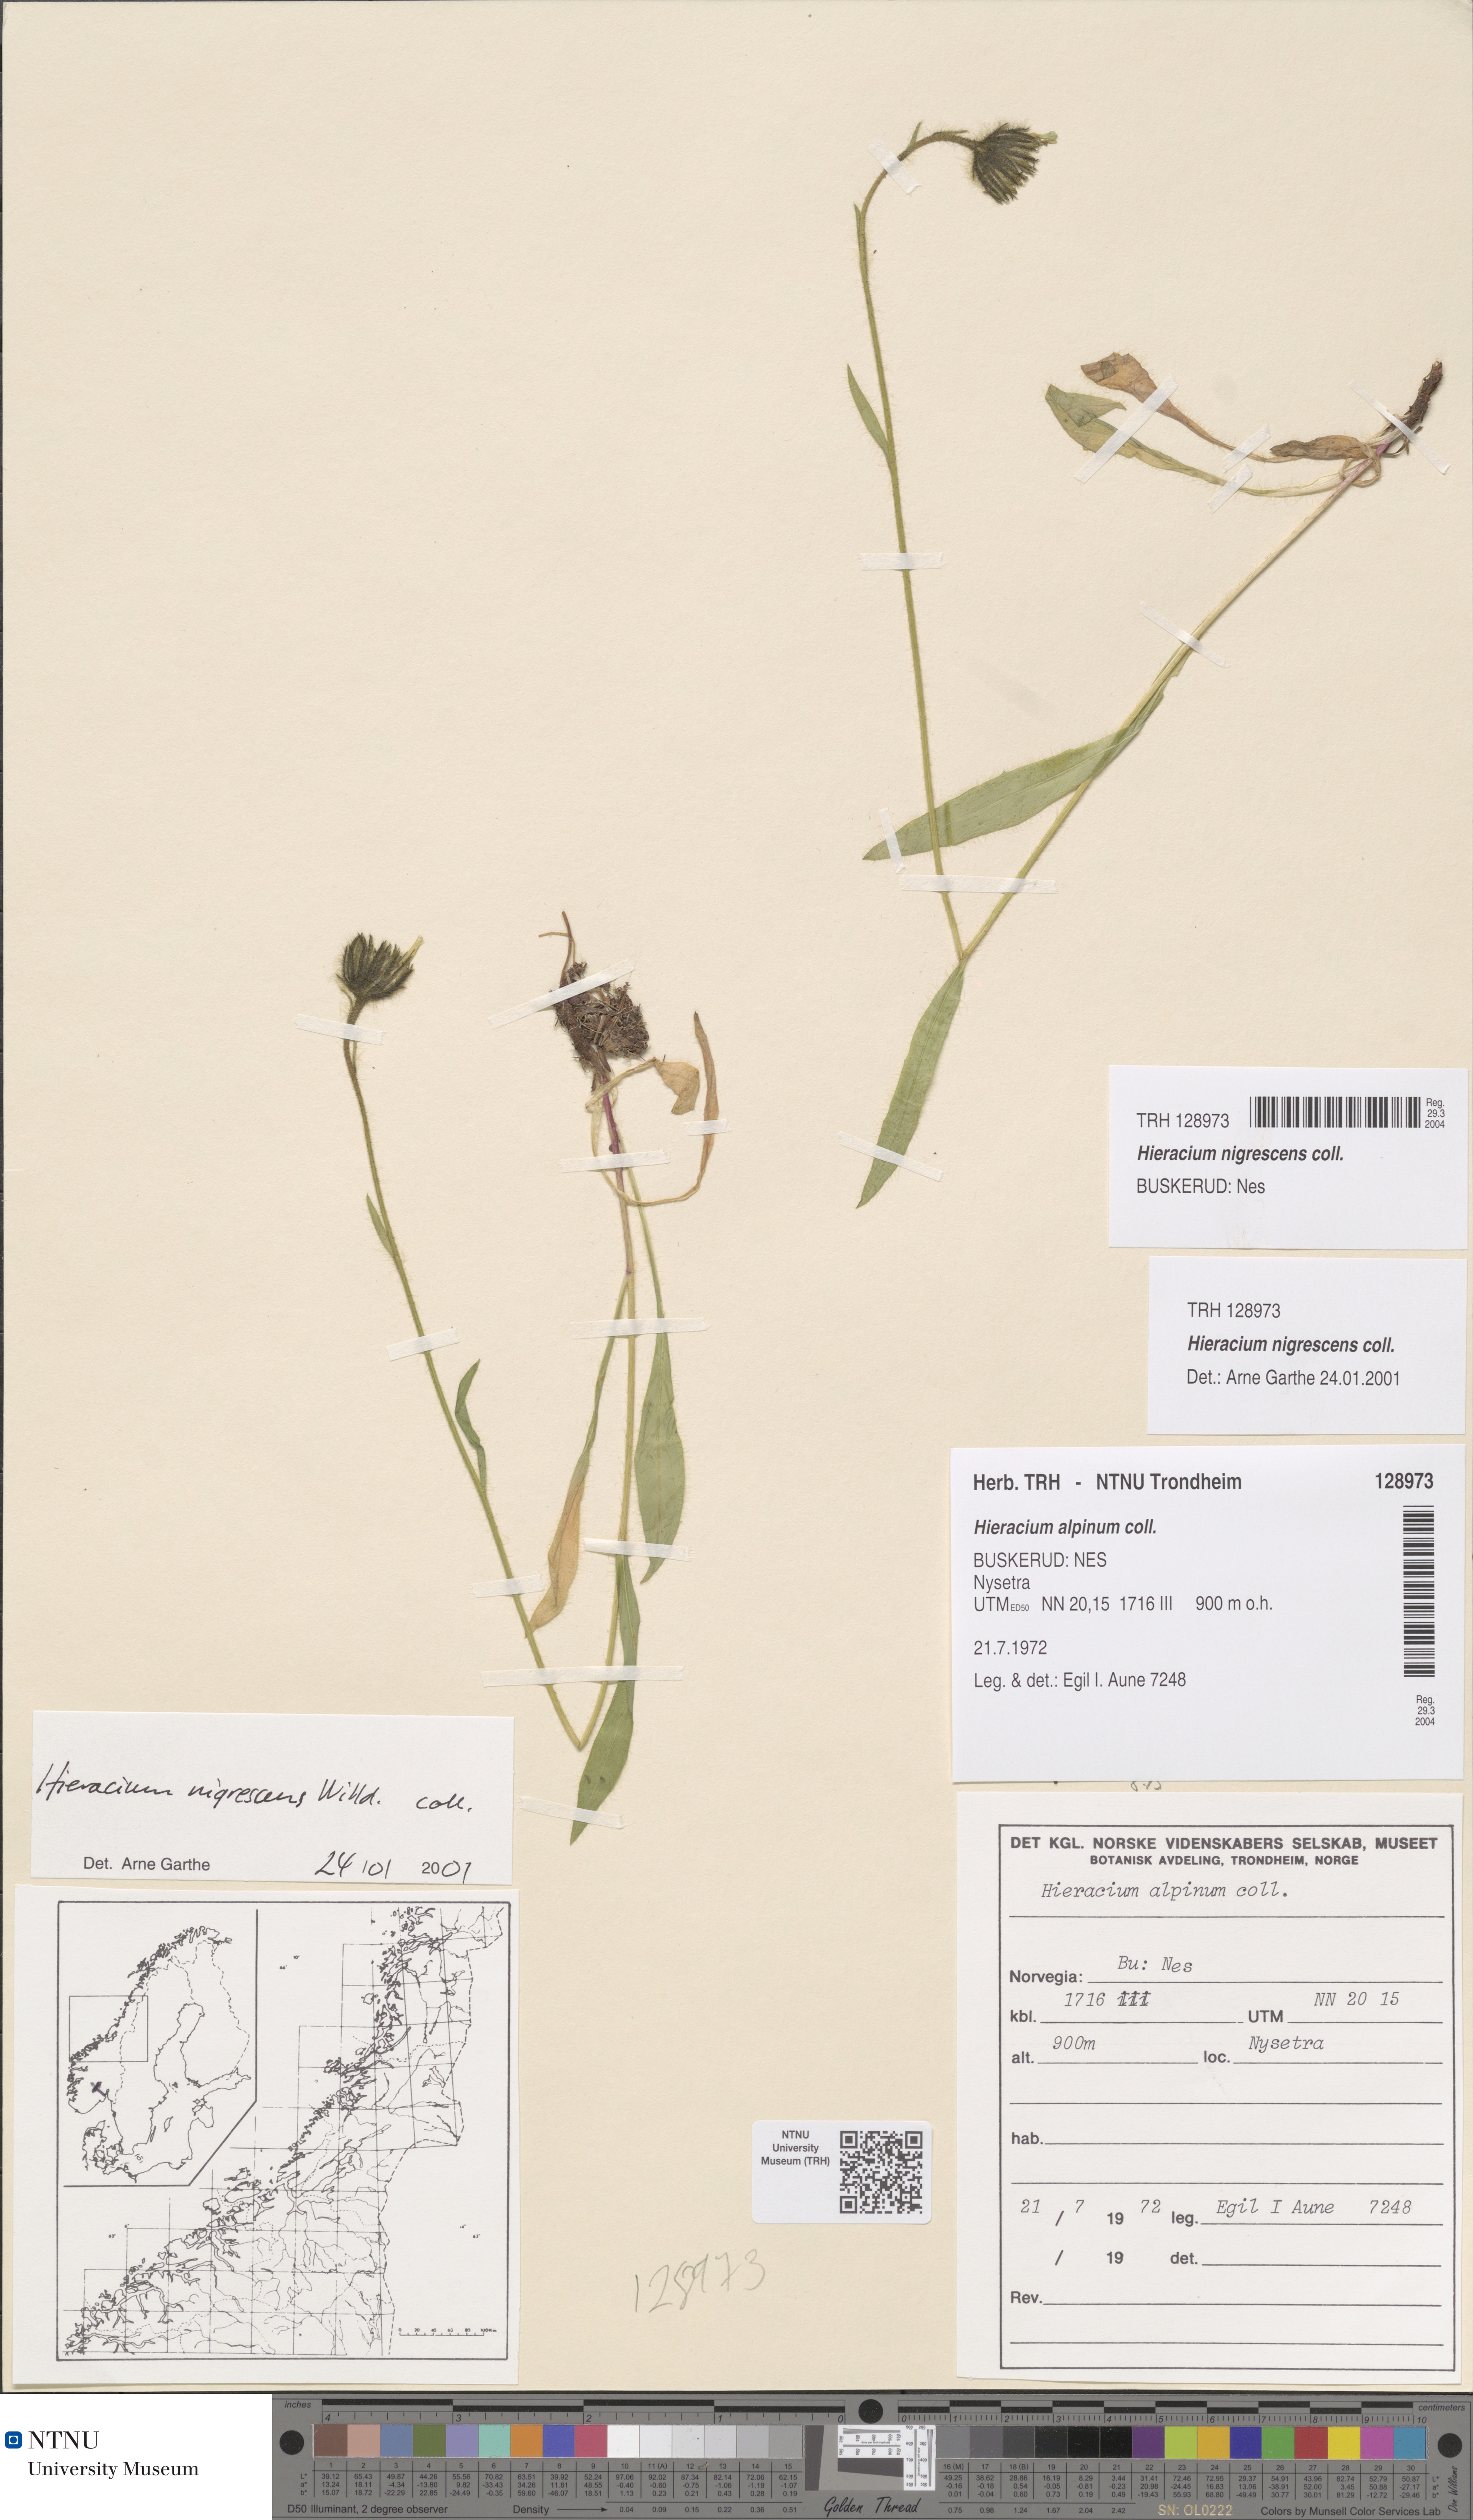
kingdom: Plantae
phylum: Tracheophyta
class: Magnoliopsida
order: Asterales
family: Asteraceae
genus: Hieracium
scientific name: Hieracium nigrescens
